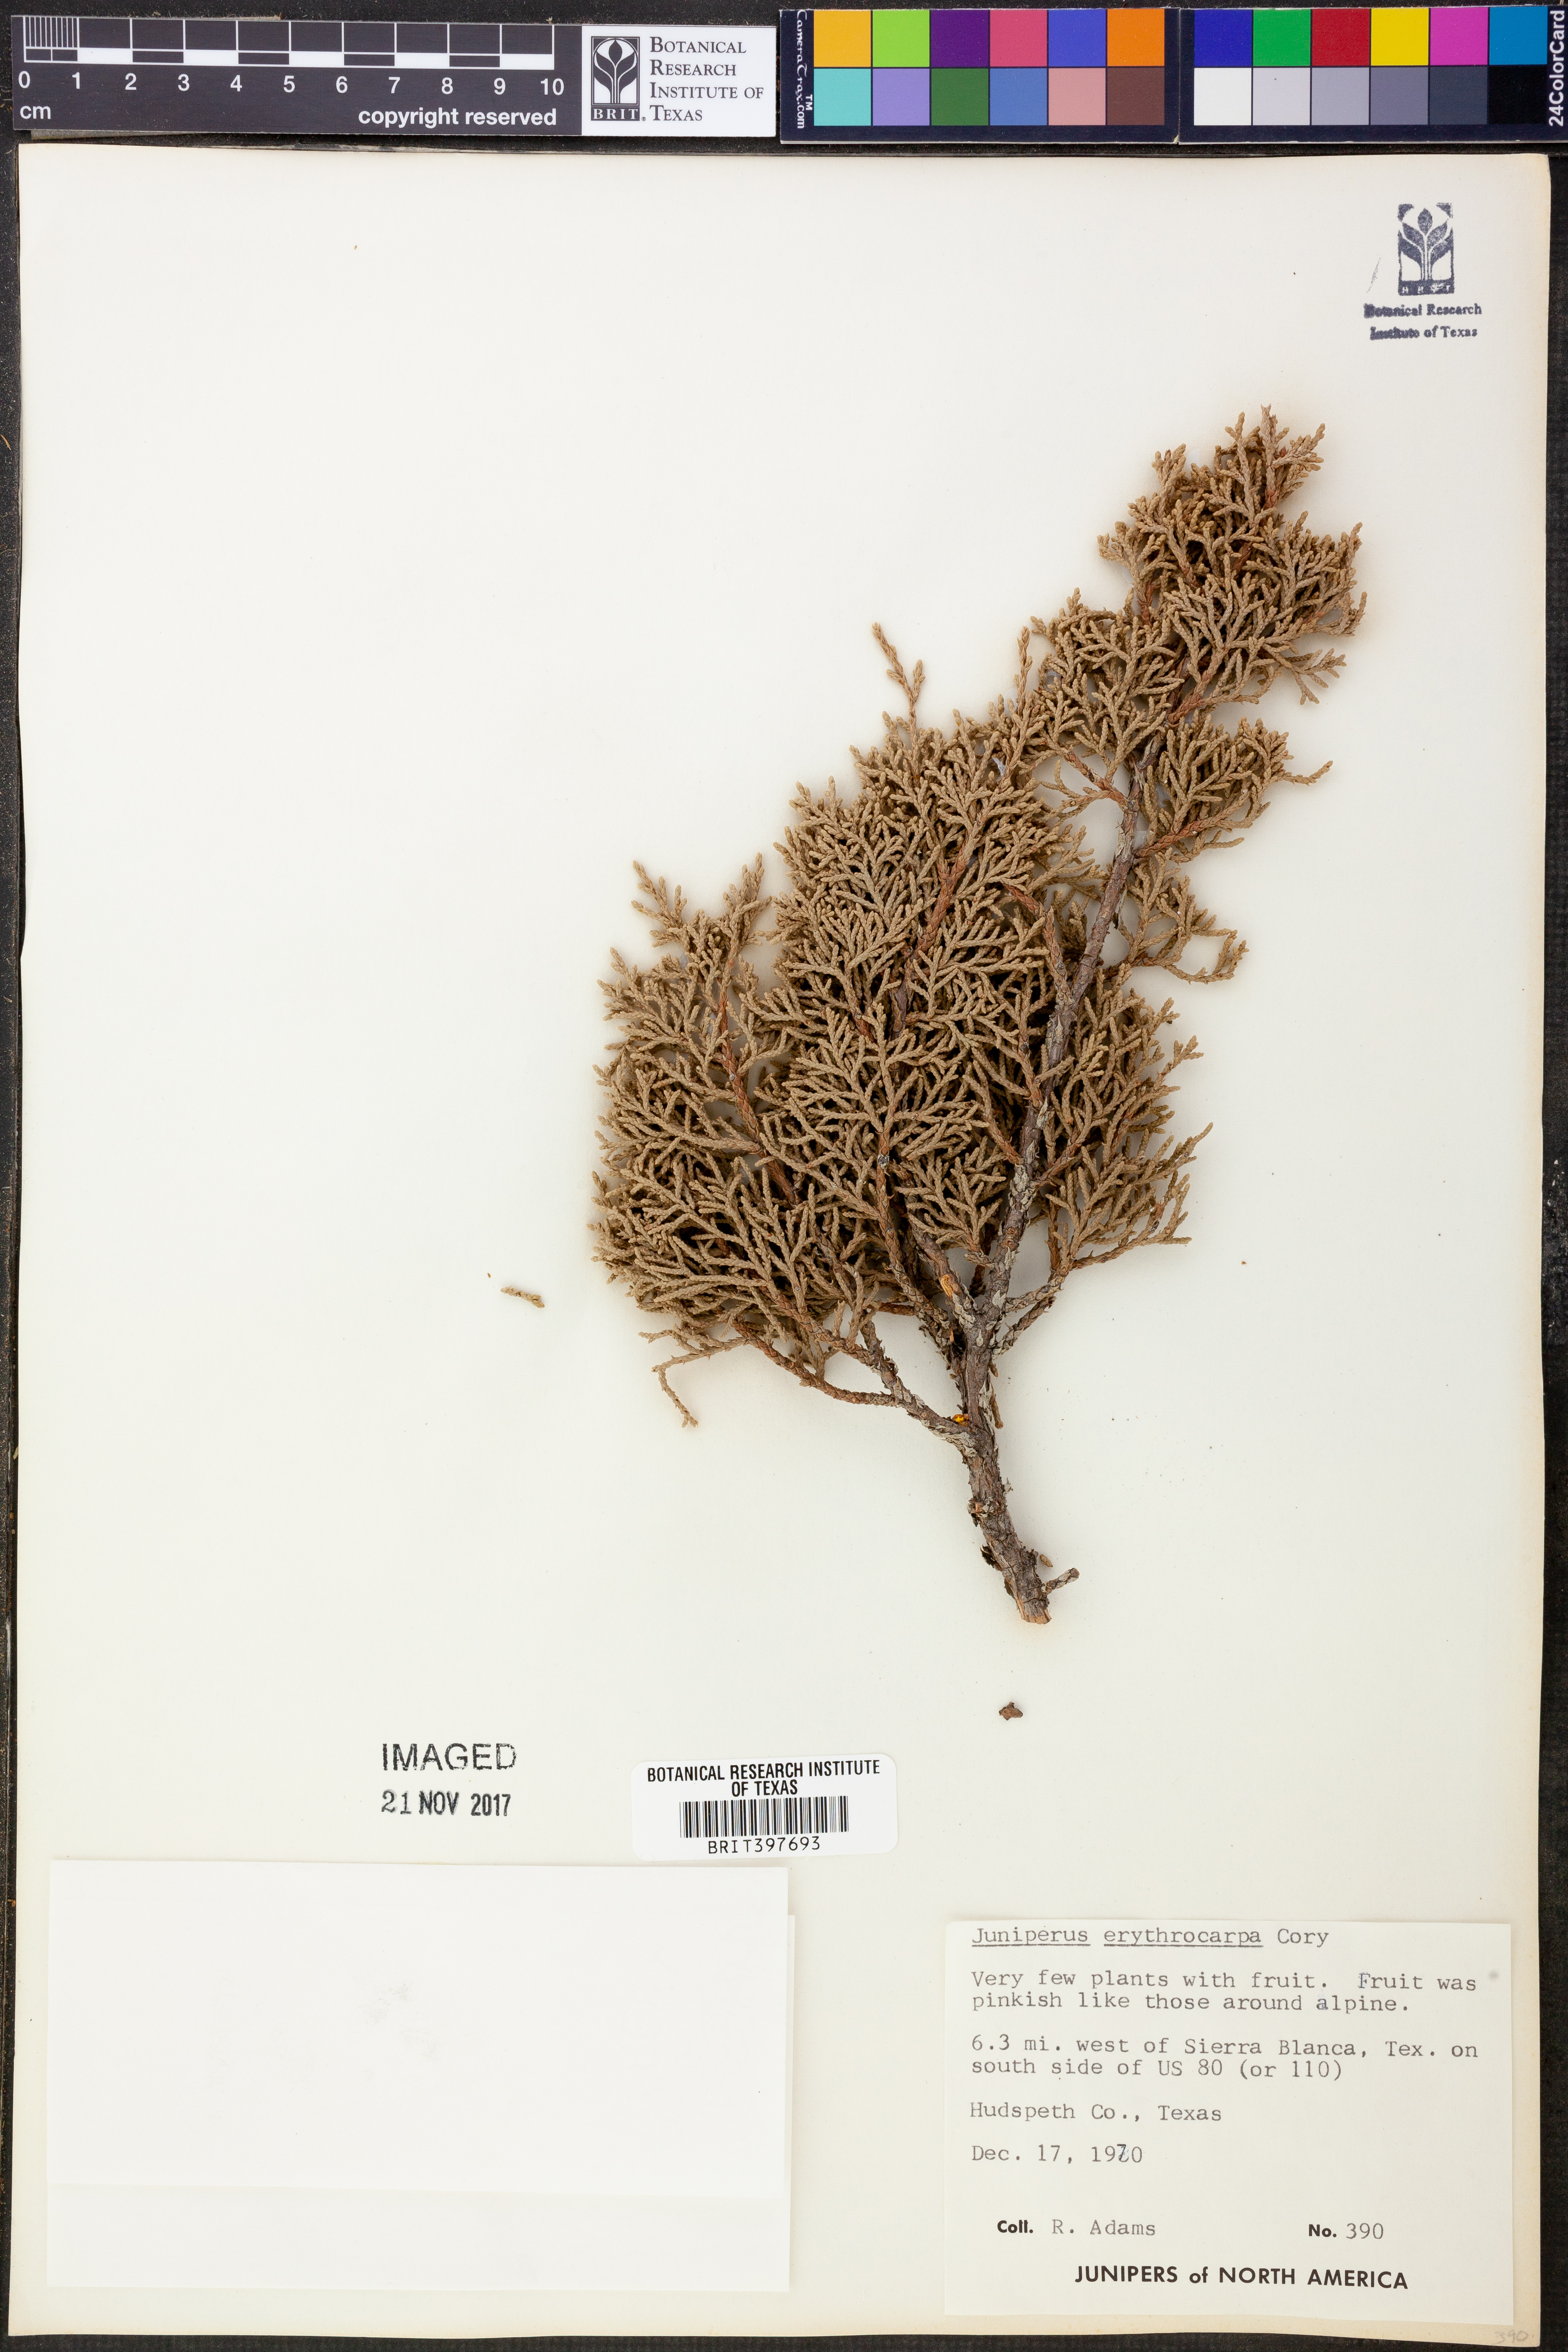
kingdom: Plantae
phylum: Tracheophyta
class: Pinopsida
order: Pinales
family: Cupressaceae
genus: Juniperus
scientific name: Juniperus pinchotii
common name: Pinchot juniper
